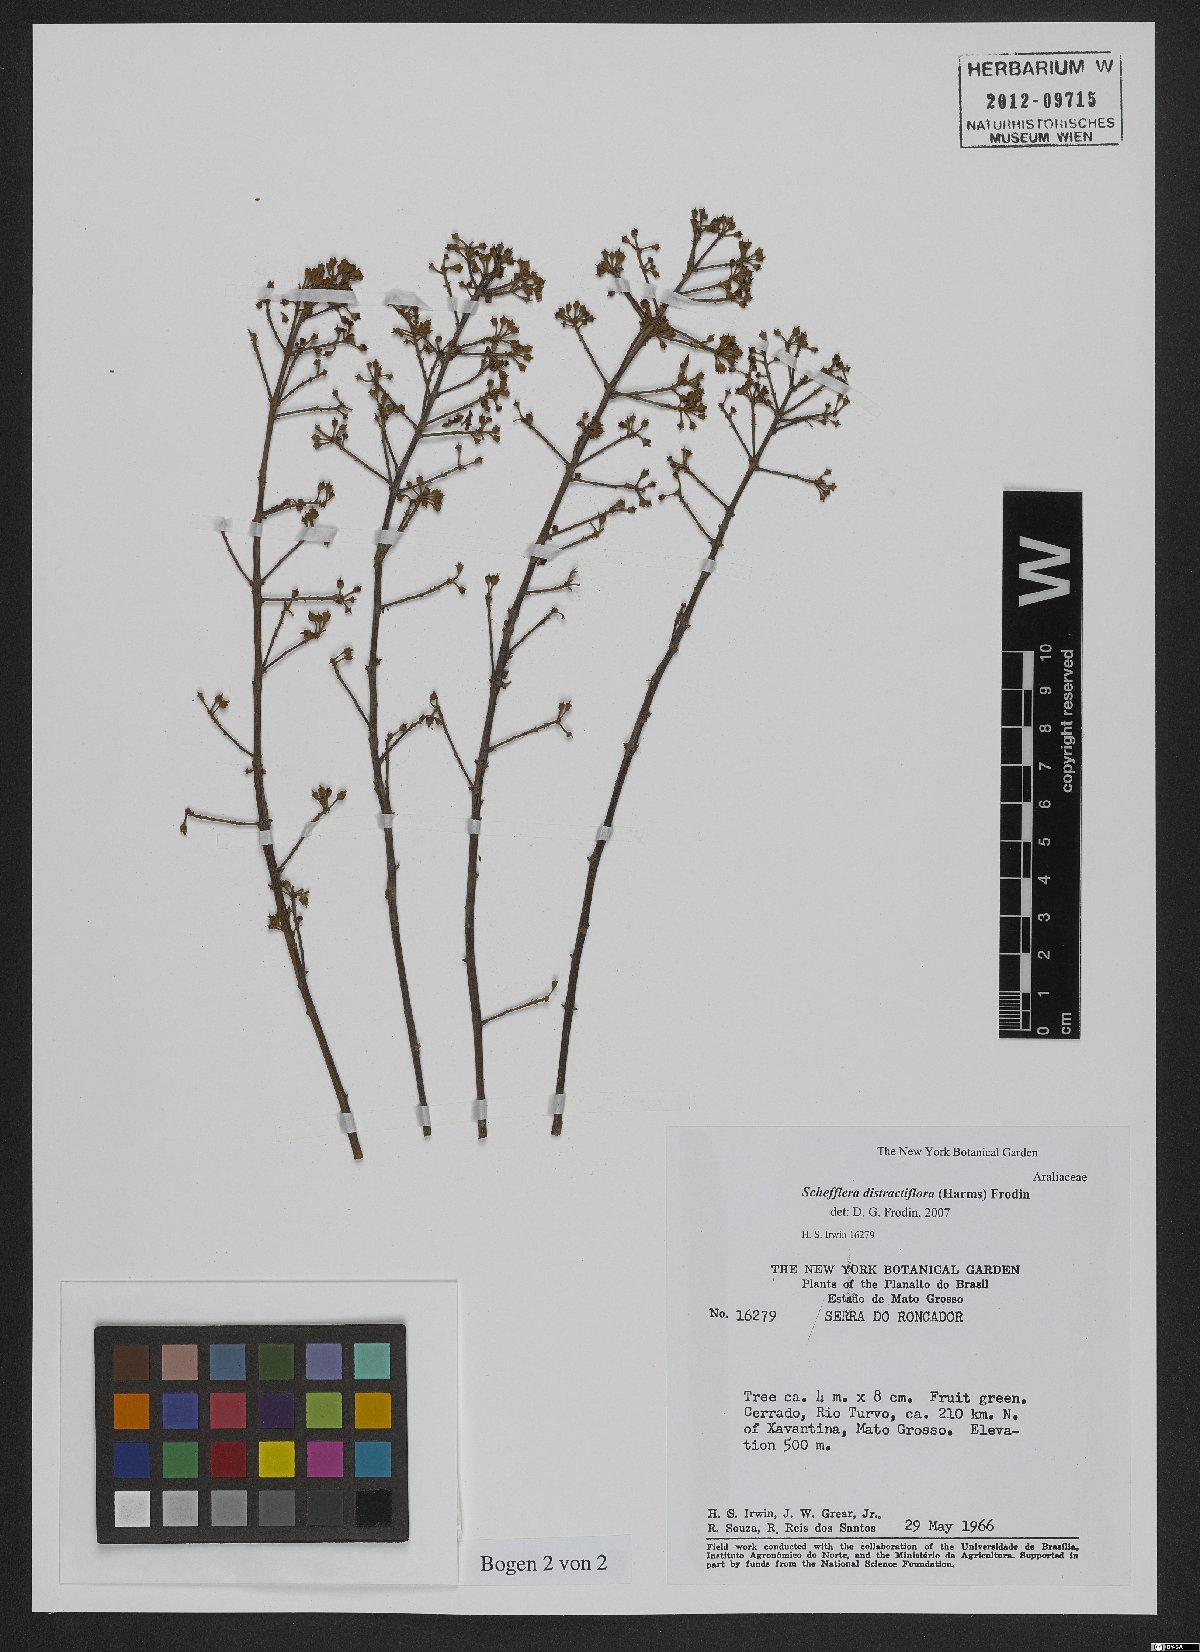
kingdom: Plantae
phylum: Tracheophyta
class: Magnoliopsida
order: Apiales
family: Araliaceae
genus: Didymopanax
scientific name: Didymopanax distractiflorus
